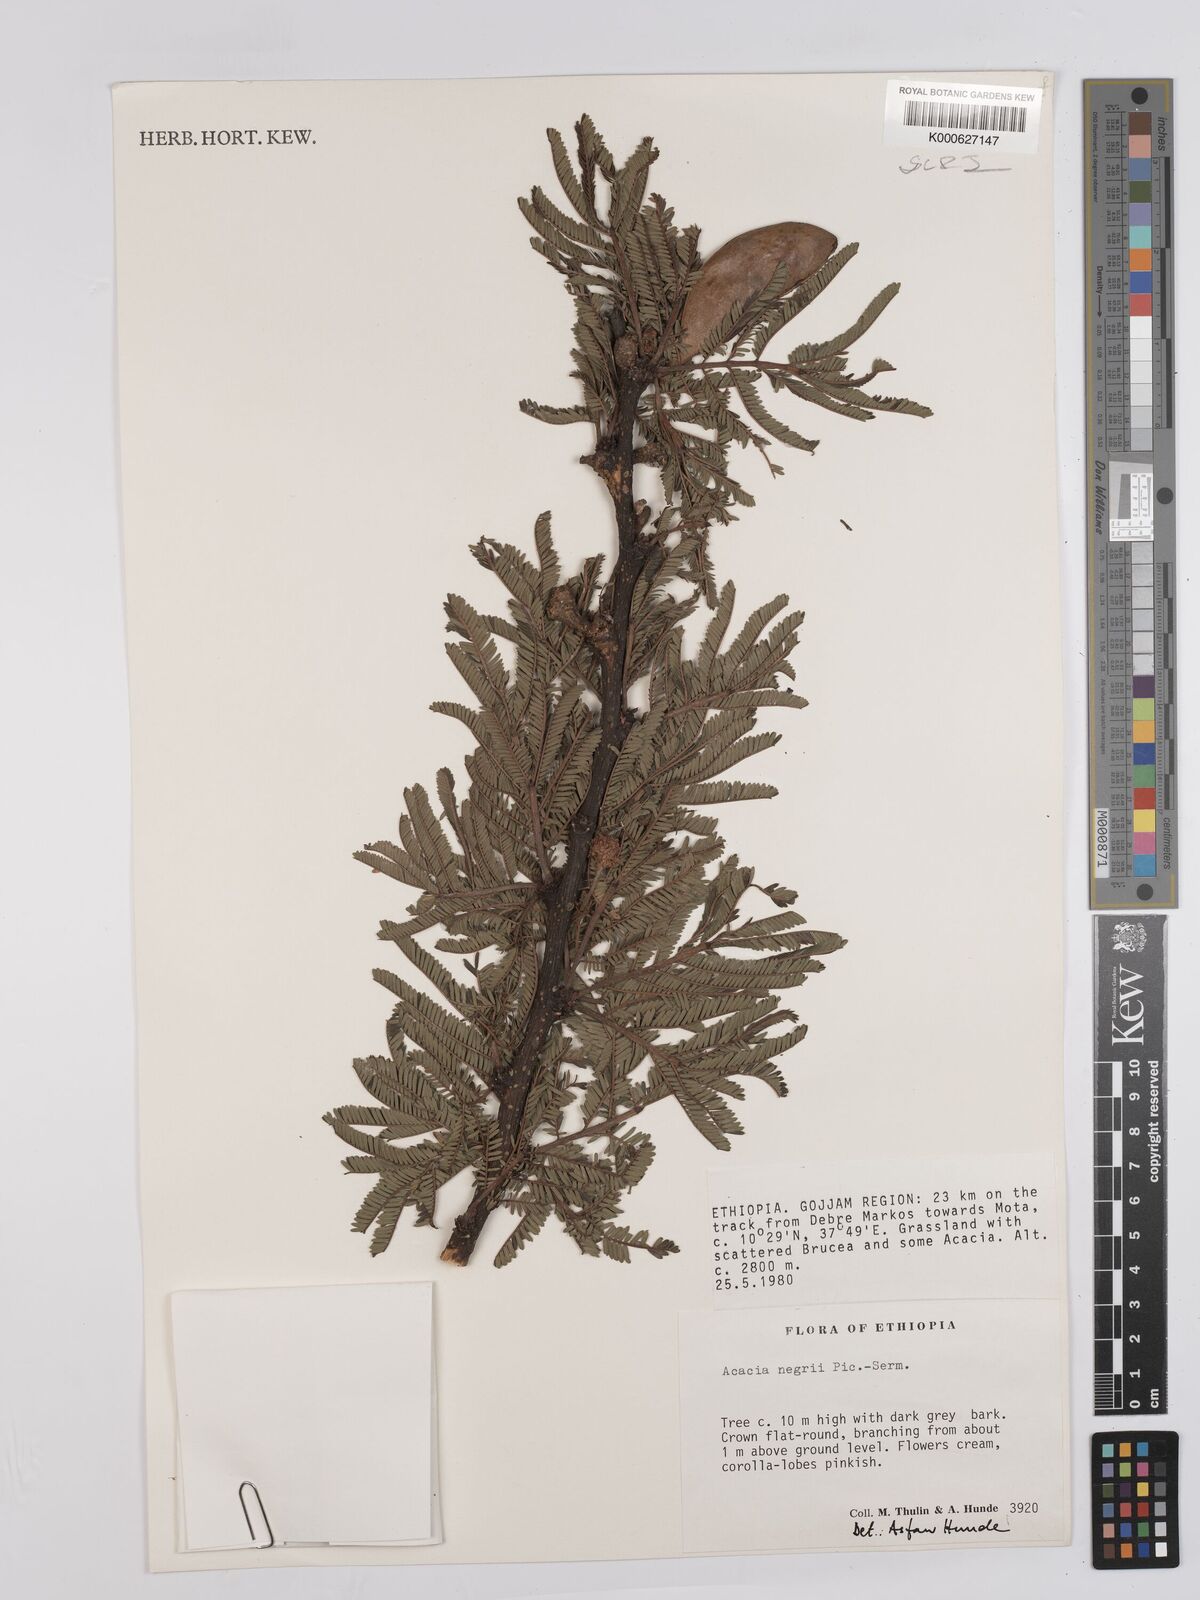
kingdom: Plantae
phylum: Tracheophyta
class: Magnoliopsida
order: Fabales
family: Fabaceae
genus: Vachellia
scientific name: Vachellia negrii
